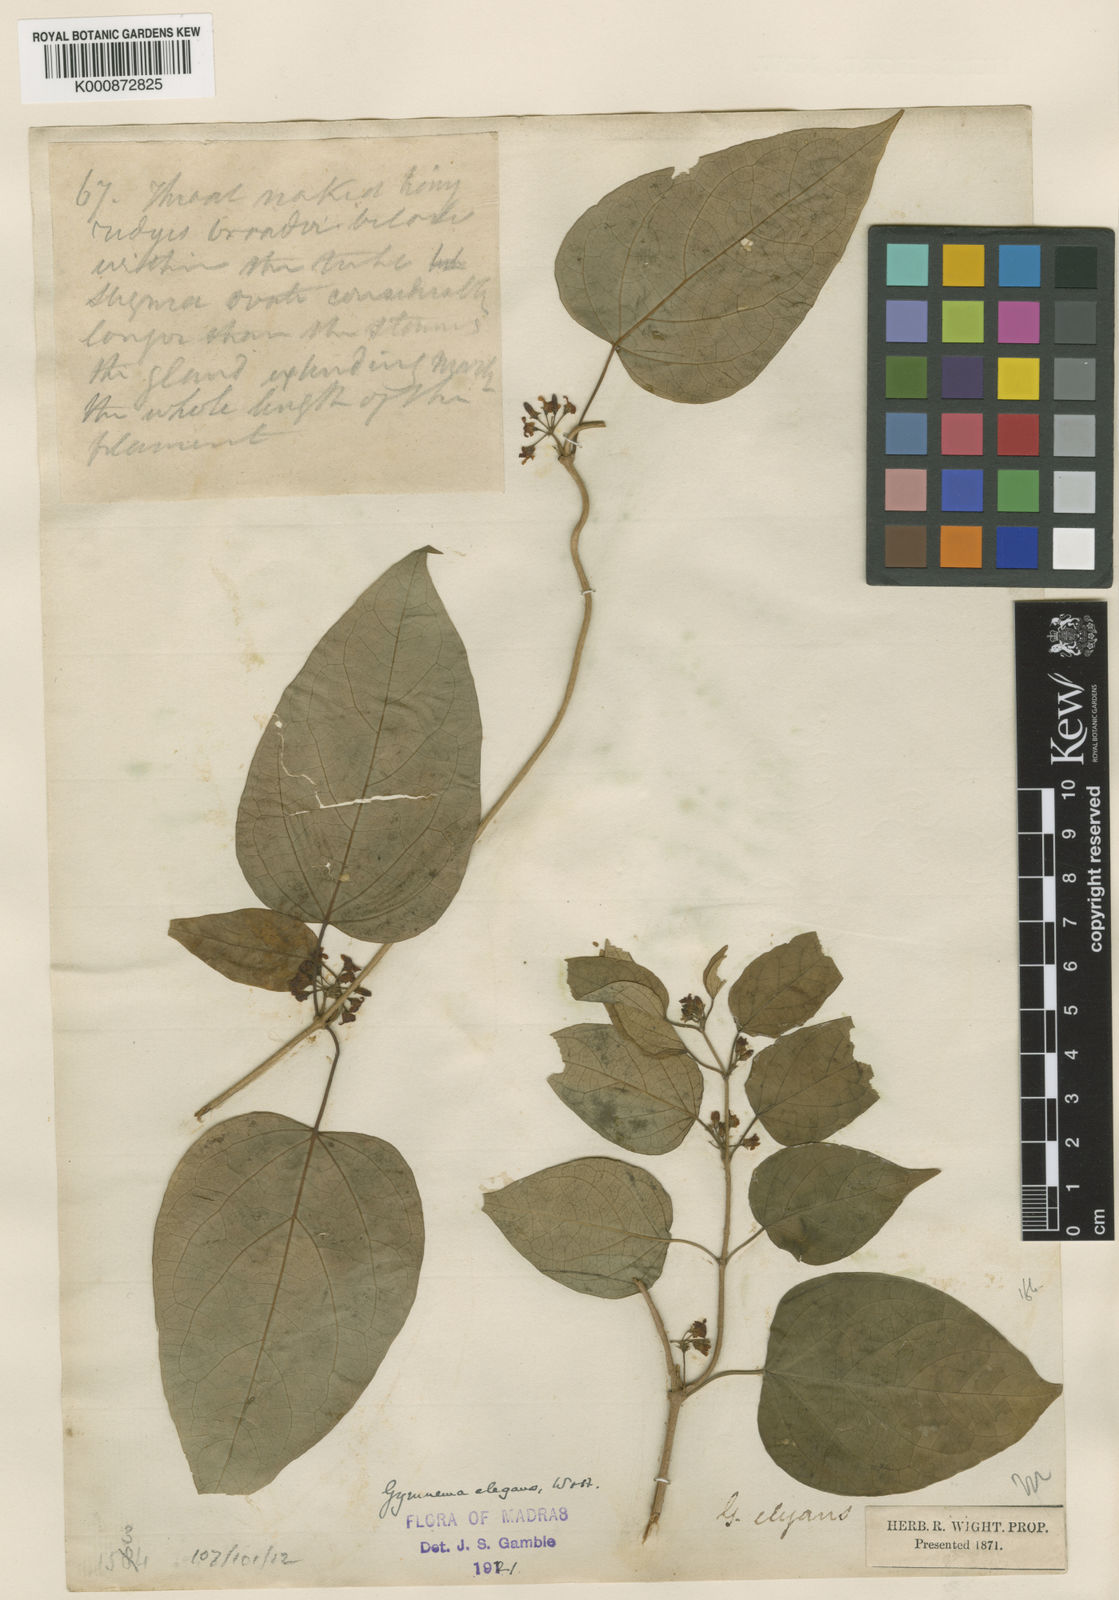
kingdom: Plantae
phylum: Tracheophyta
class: Magnoliopsida
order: Gentianales
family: Apocynaceae
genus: Gymnema
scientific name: Gymnema elegans
